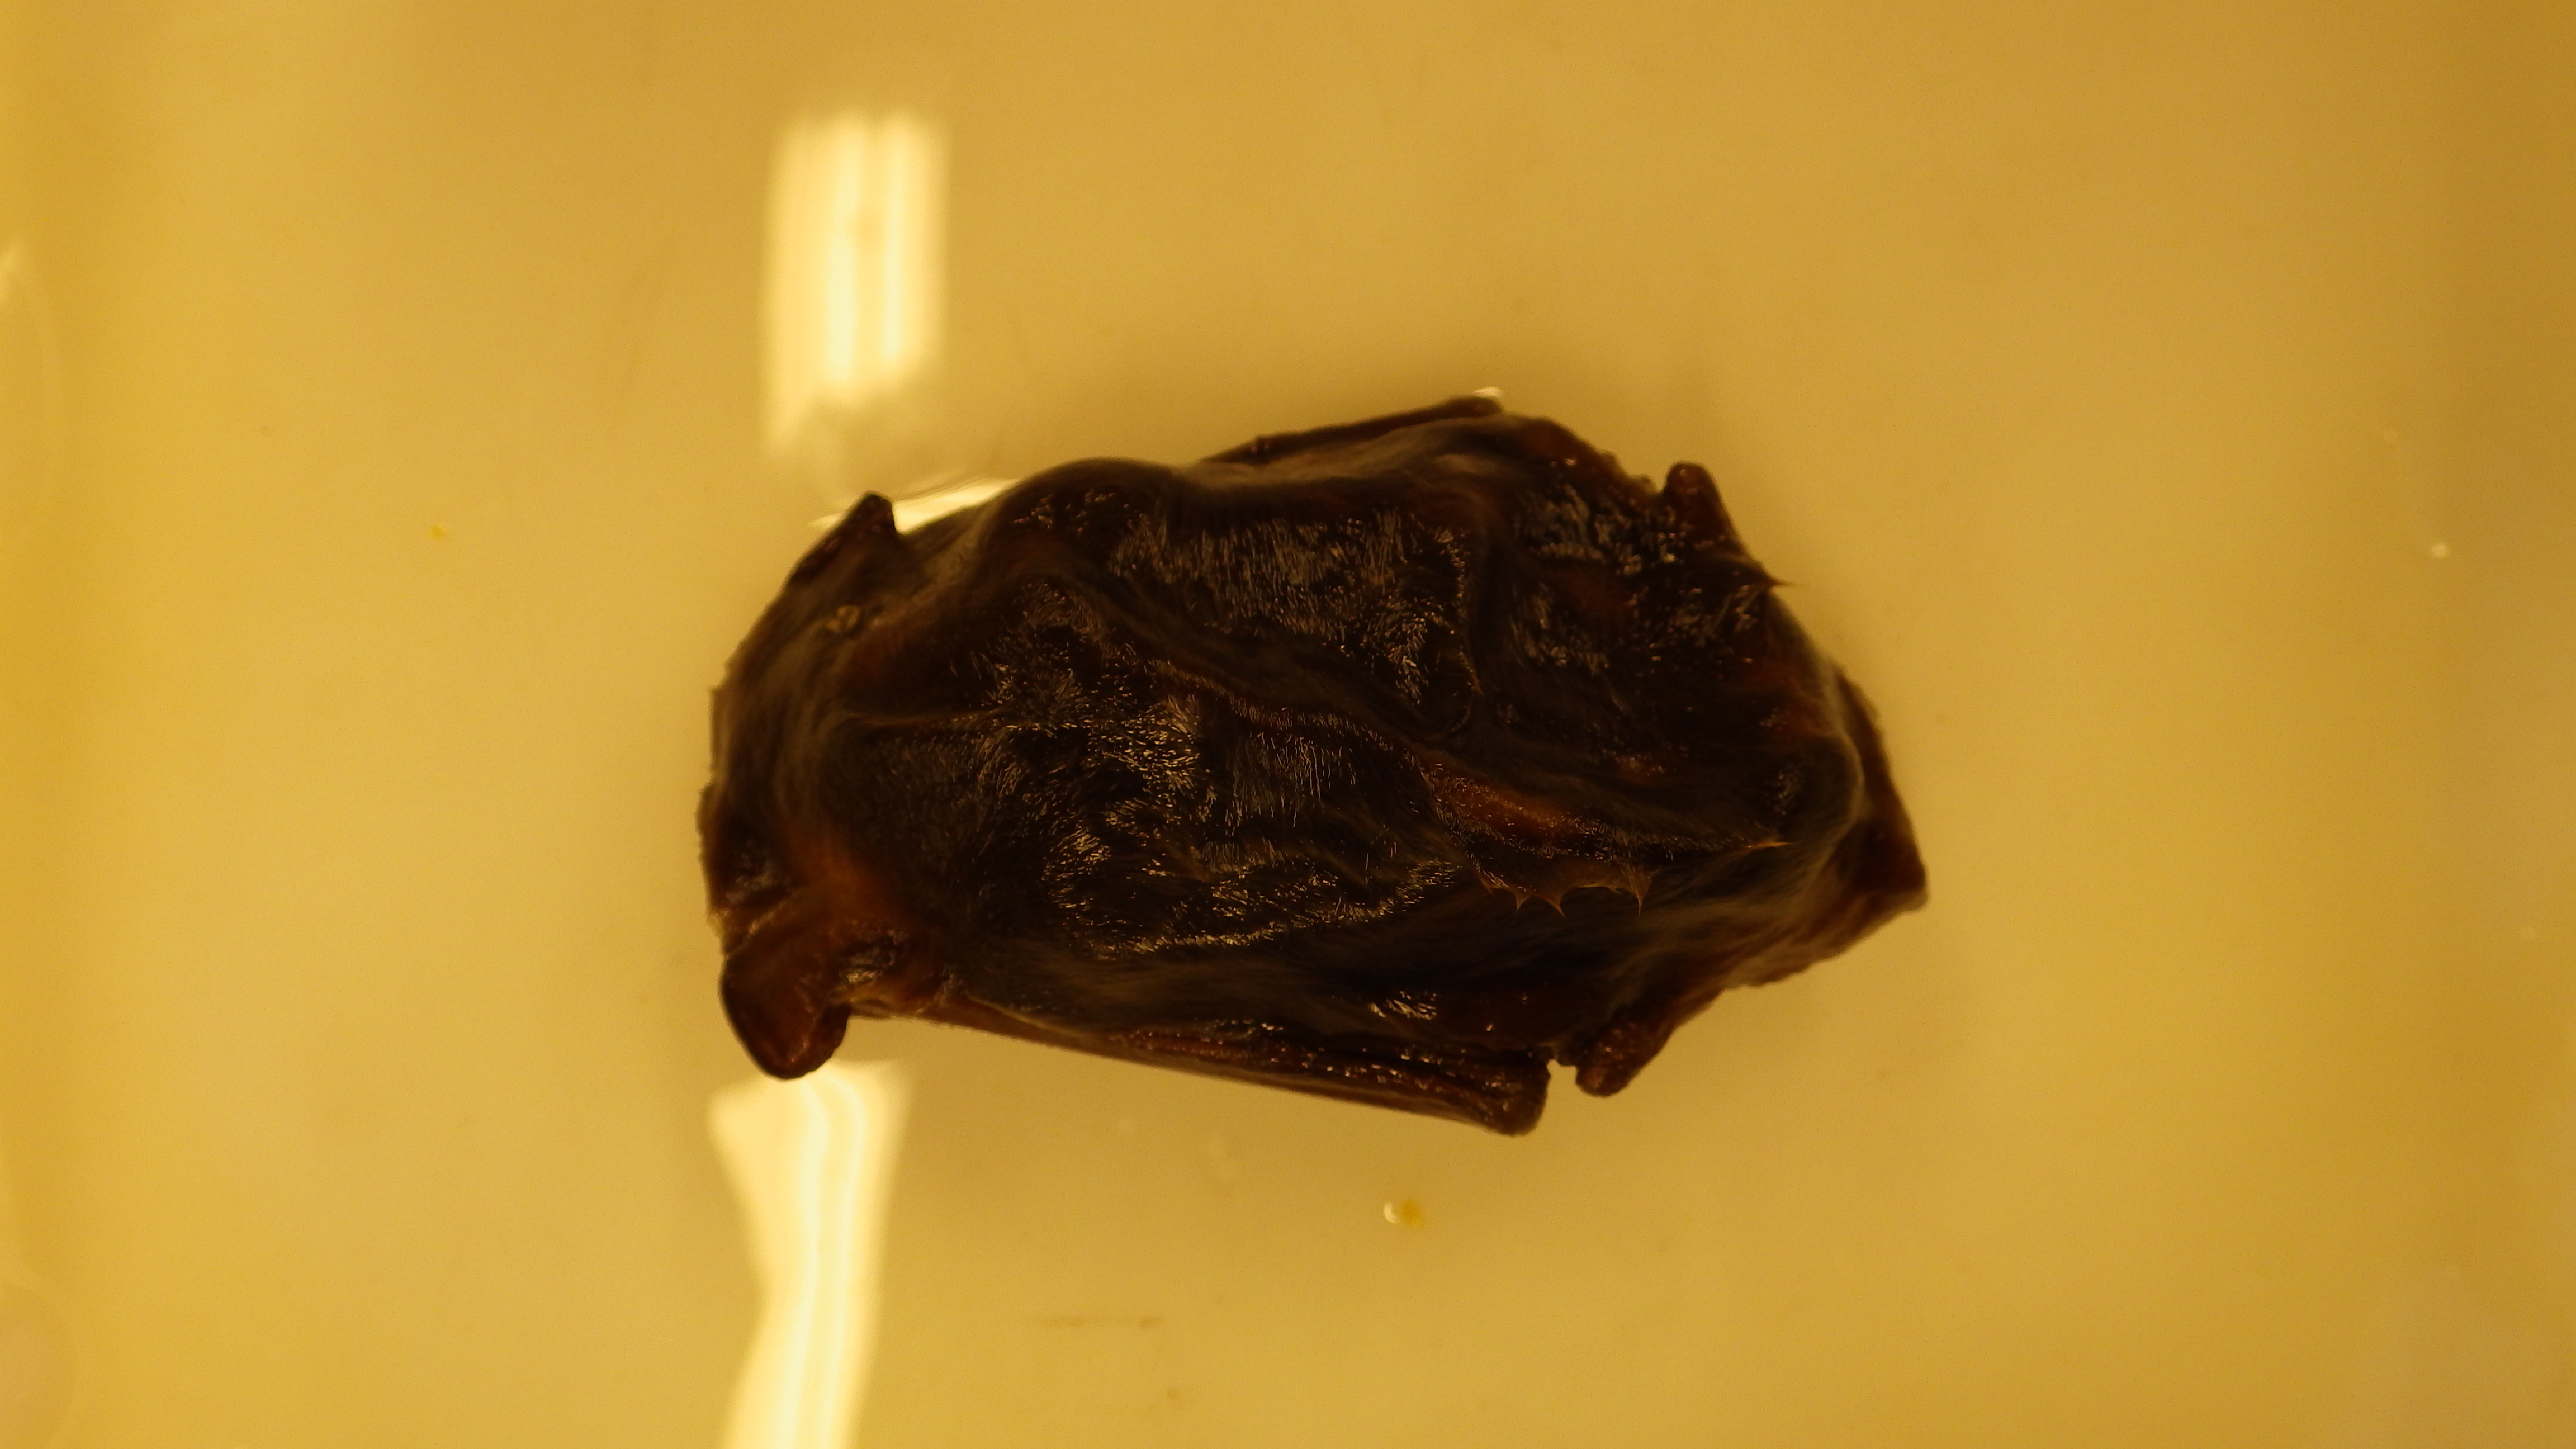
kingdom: Animalia
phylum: Chordata
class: Mammalia
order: Chiroptera
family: Vespertilionidae
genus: Vespertilio
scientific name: Vespertilio murinus
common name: Particolored bat
